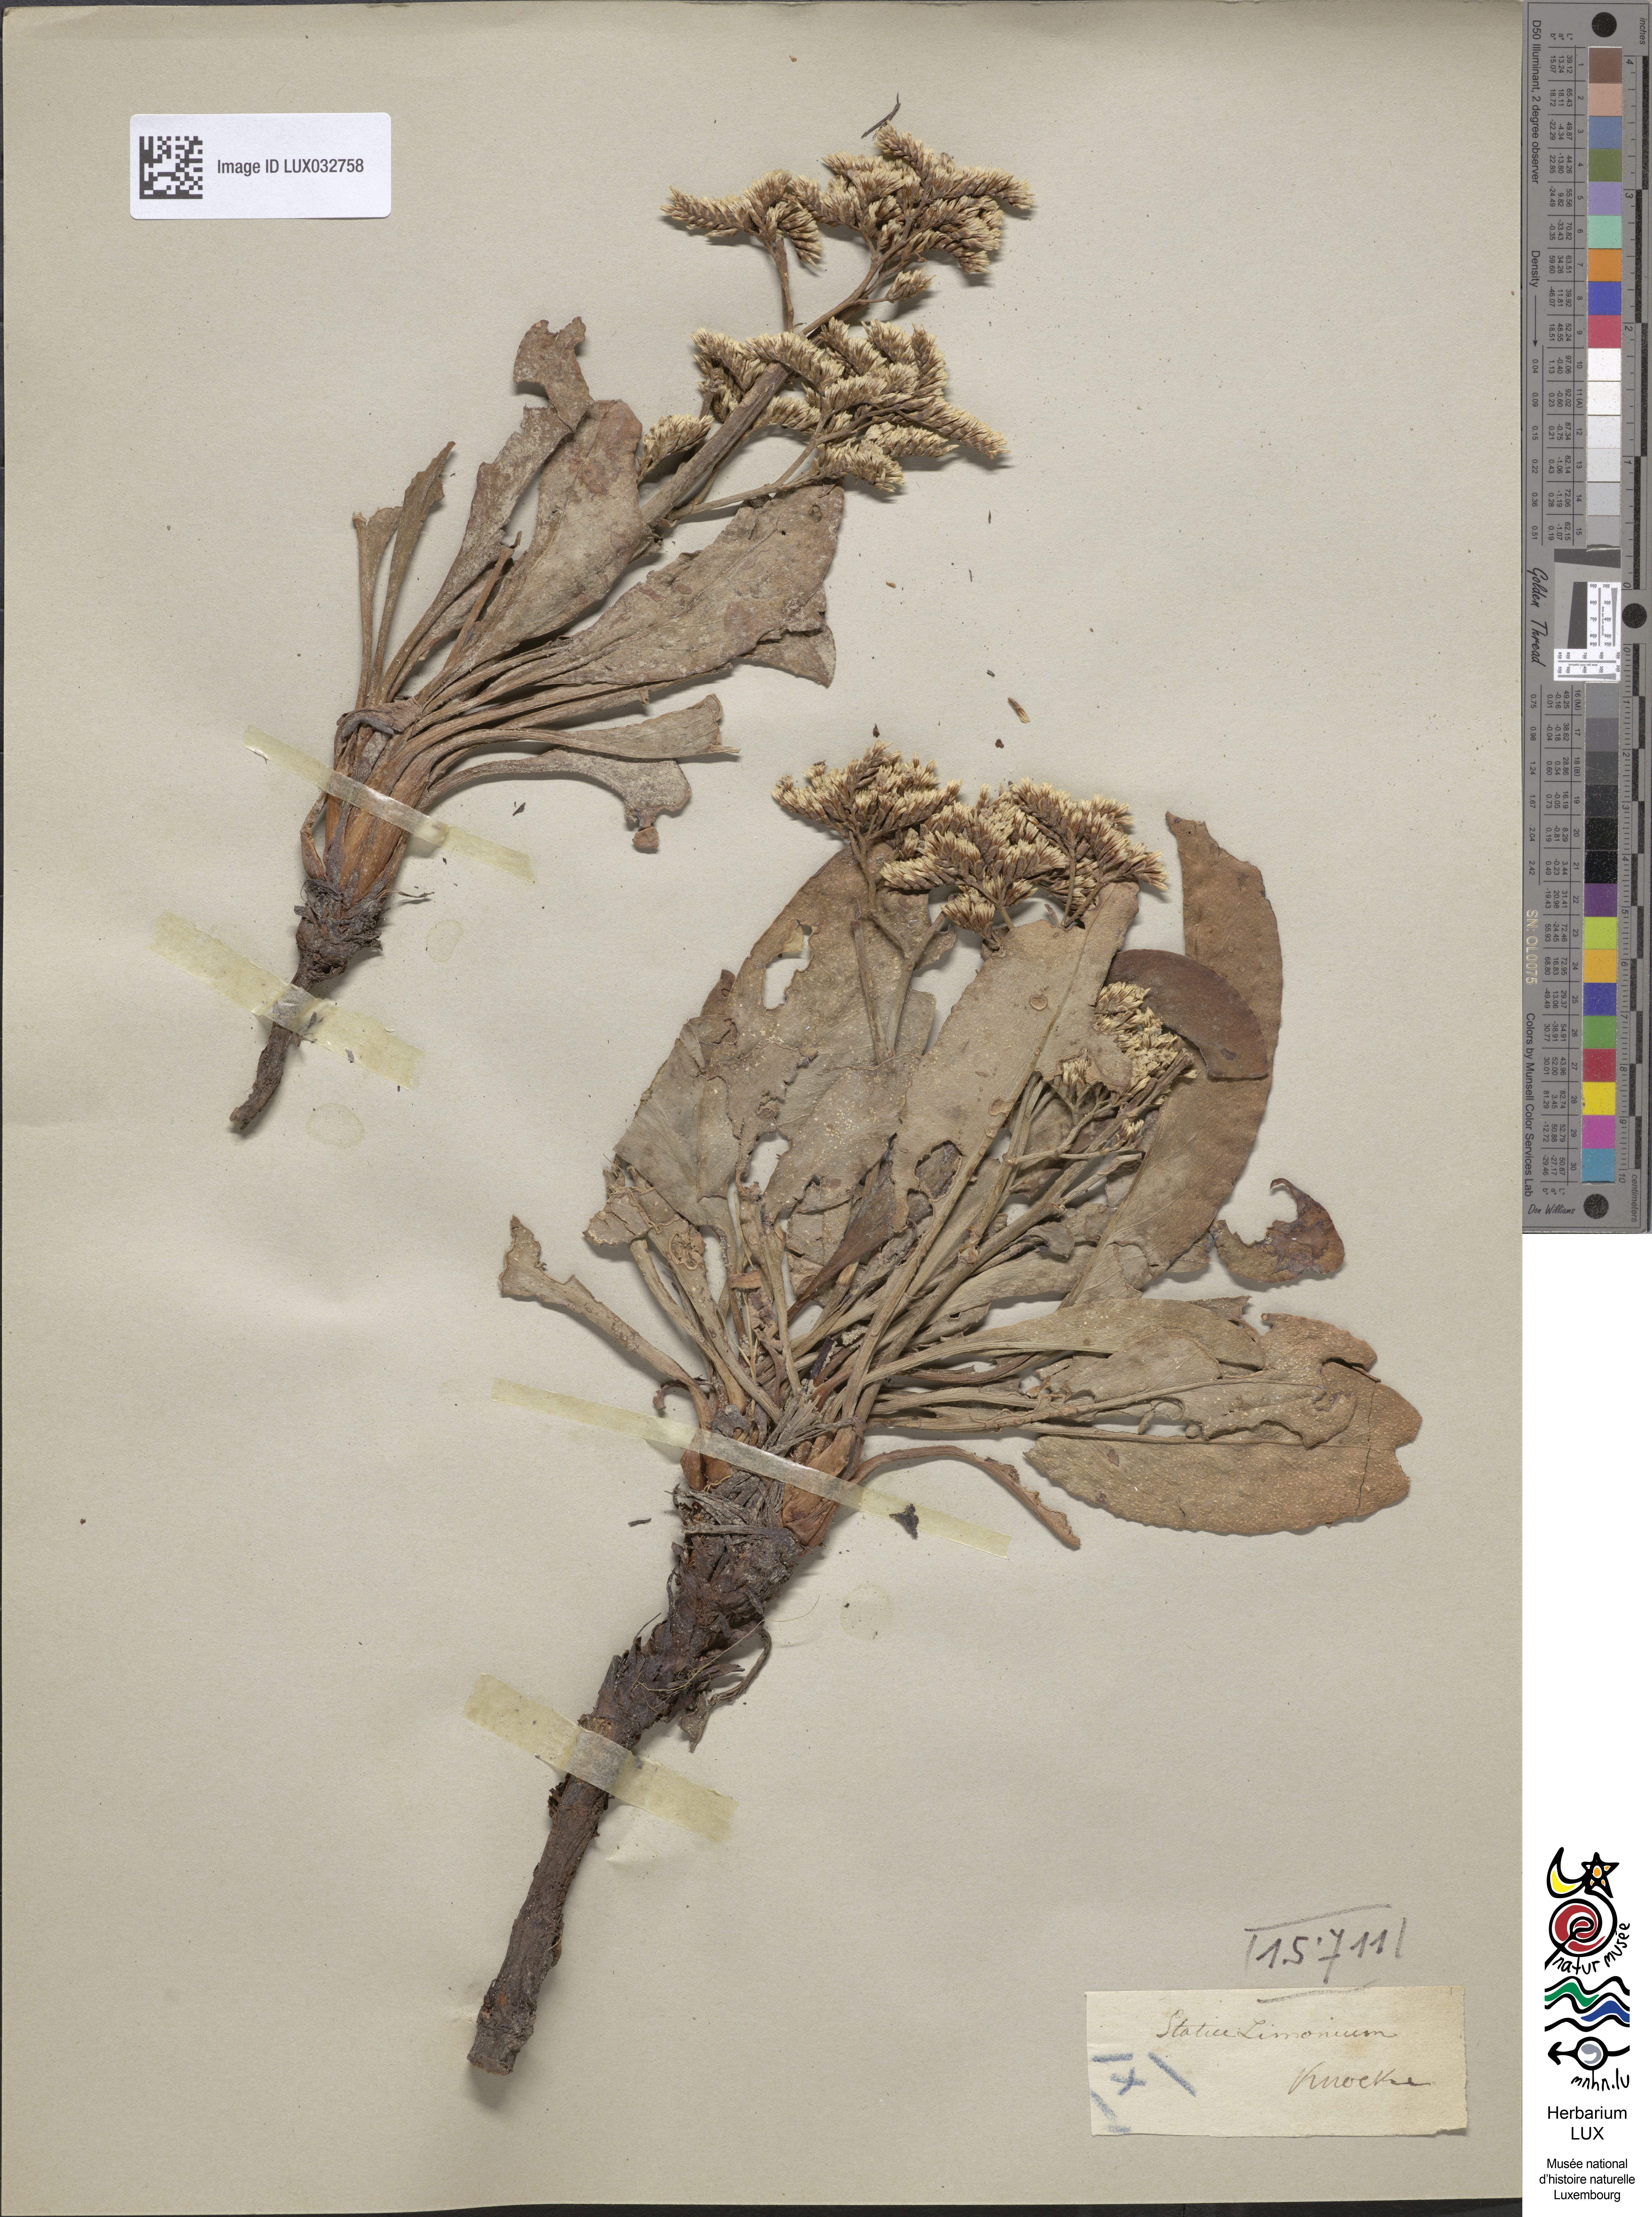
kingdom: Plantae
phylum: Tracheophyta
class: Magnoliopsida
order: Caryophyllales
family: Plumbaginaceae
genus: Limonium
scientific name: Limonium vulgare
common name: Common sea-lavender
